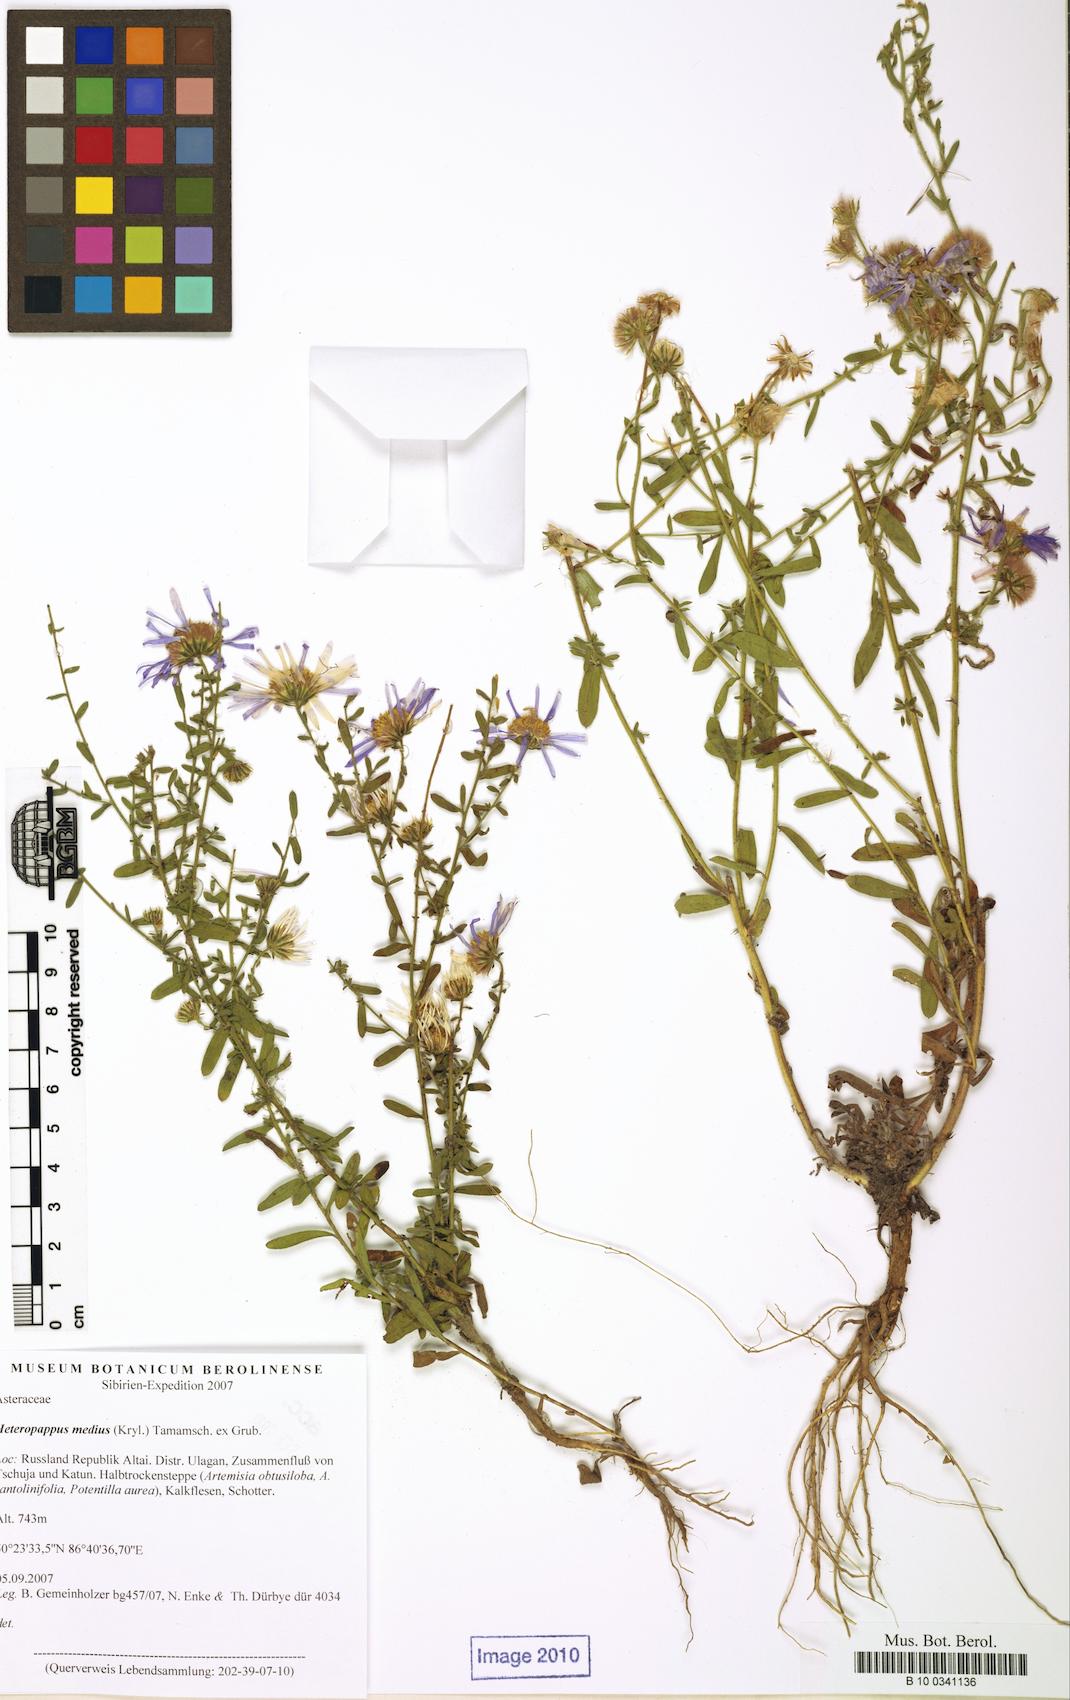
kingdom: Plantae
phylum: Tracheophyta
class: Magnoliopsida
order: Asterales
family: Asteraceae
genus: Heteropappus
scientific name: Heteropappus medius
